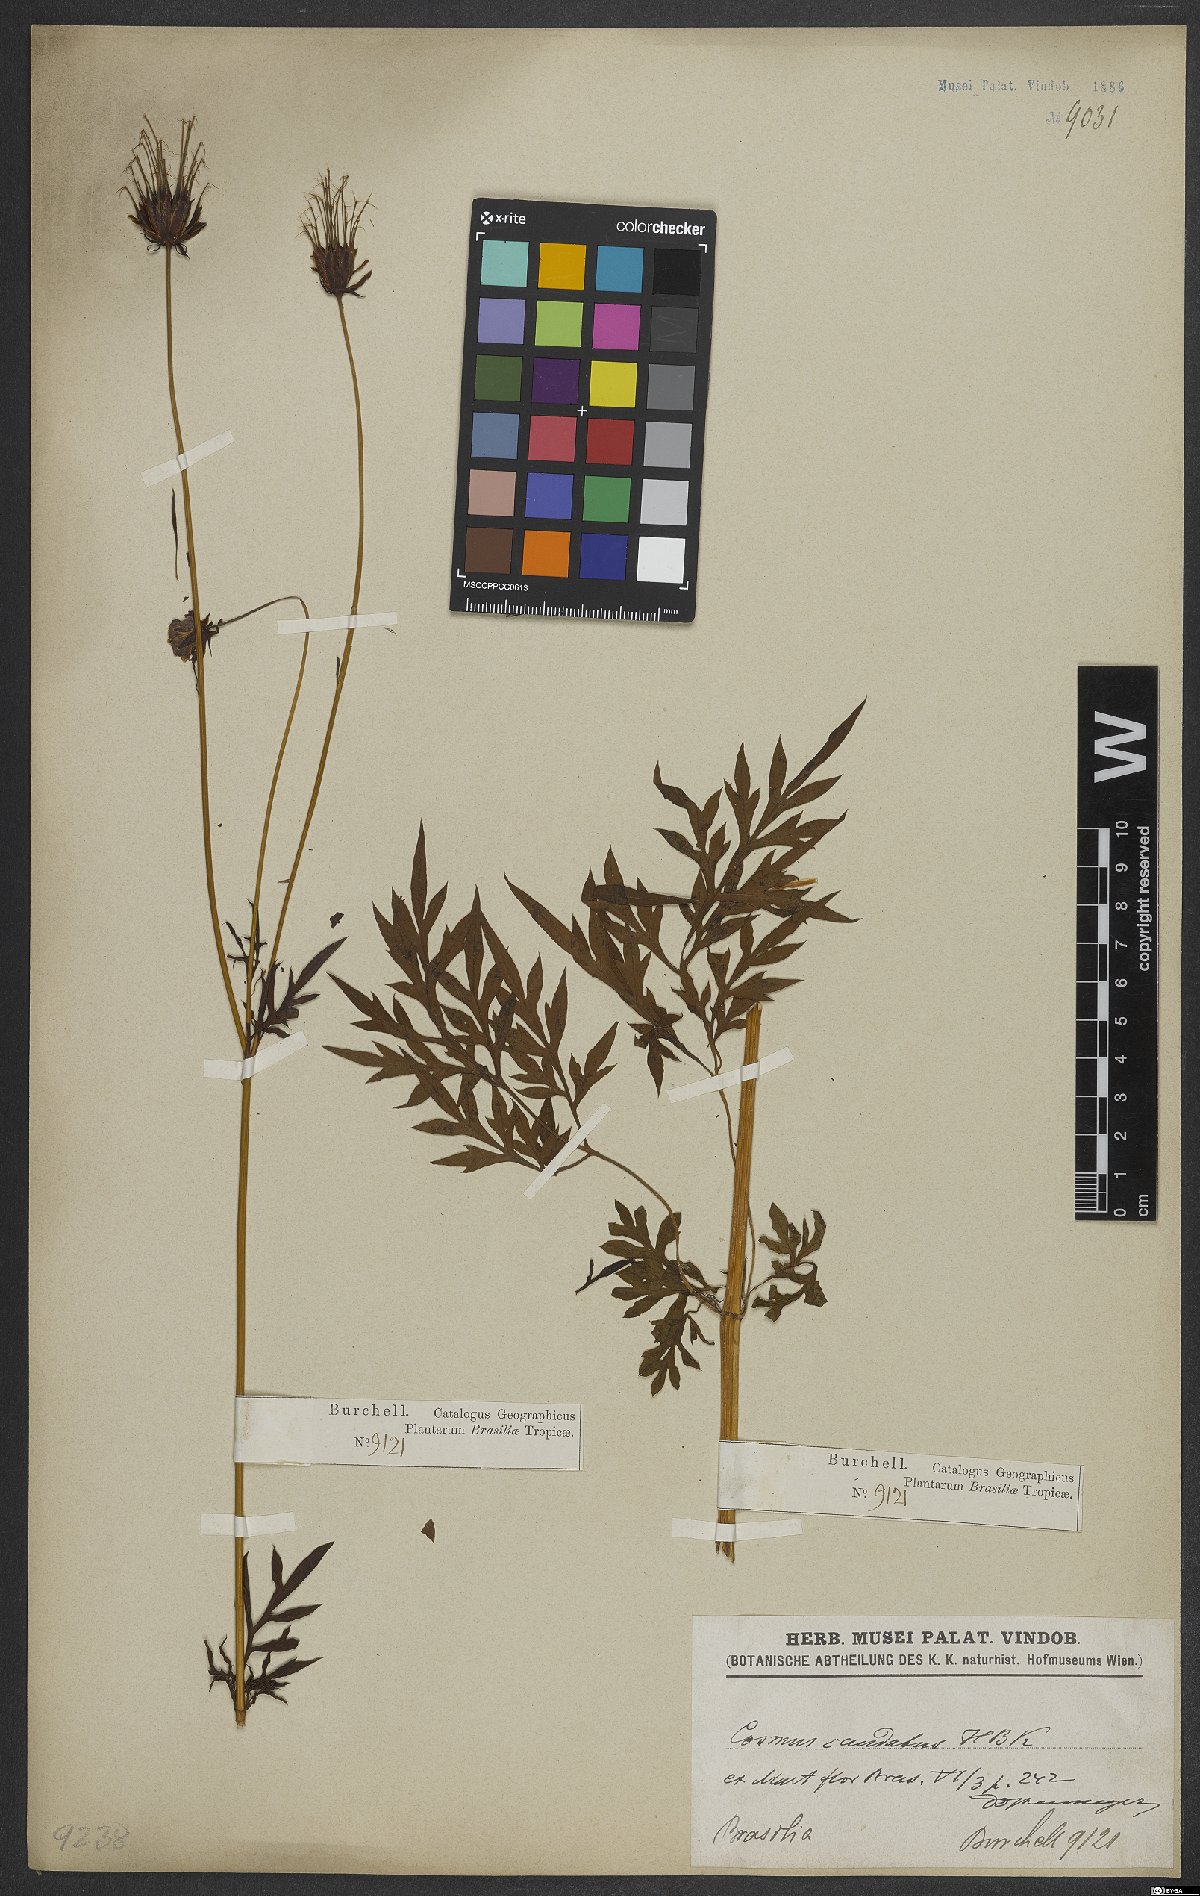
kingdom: Plantae
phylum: Tracheophyta
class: Magnoliopsida
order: Asterales
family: Asteraceae
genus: Cosmos
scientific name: Cosmos caudatus
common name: Wild cosmos
